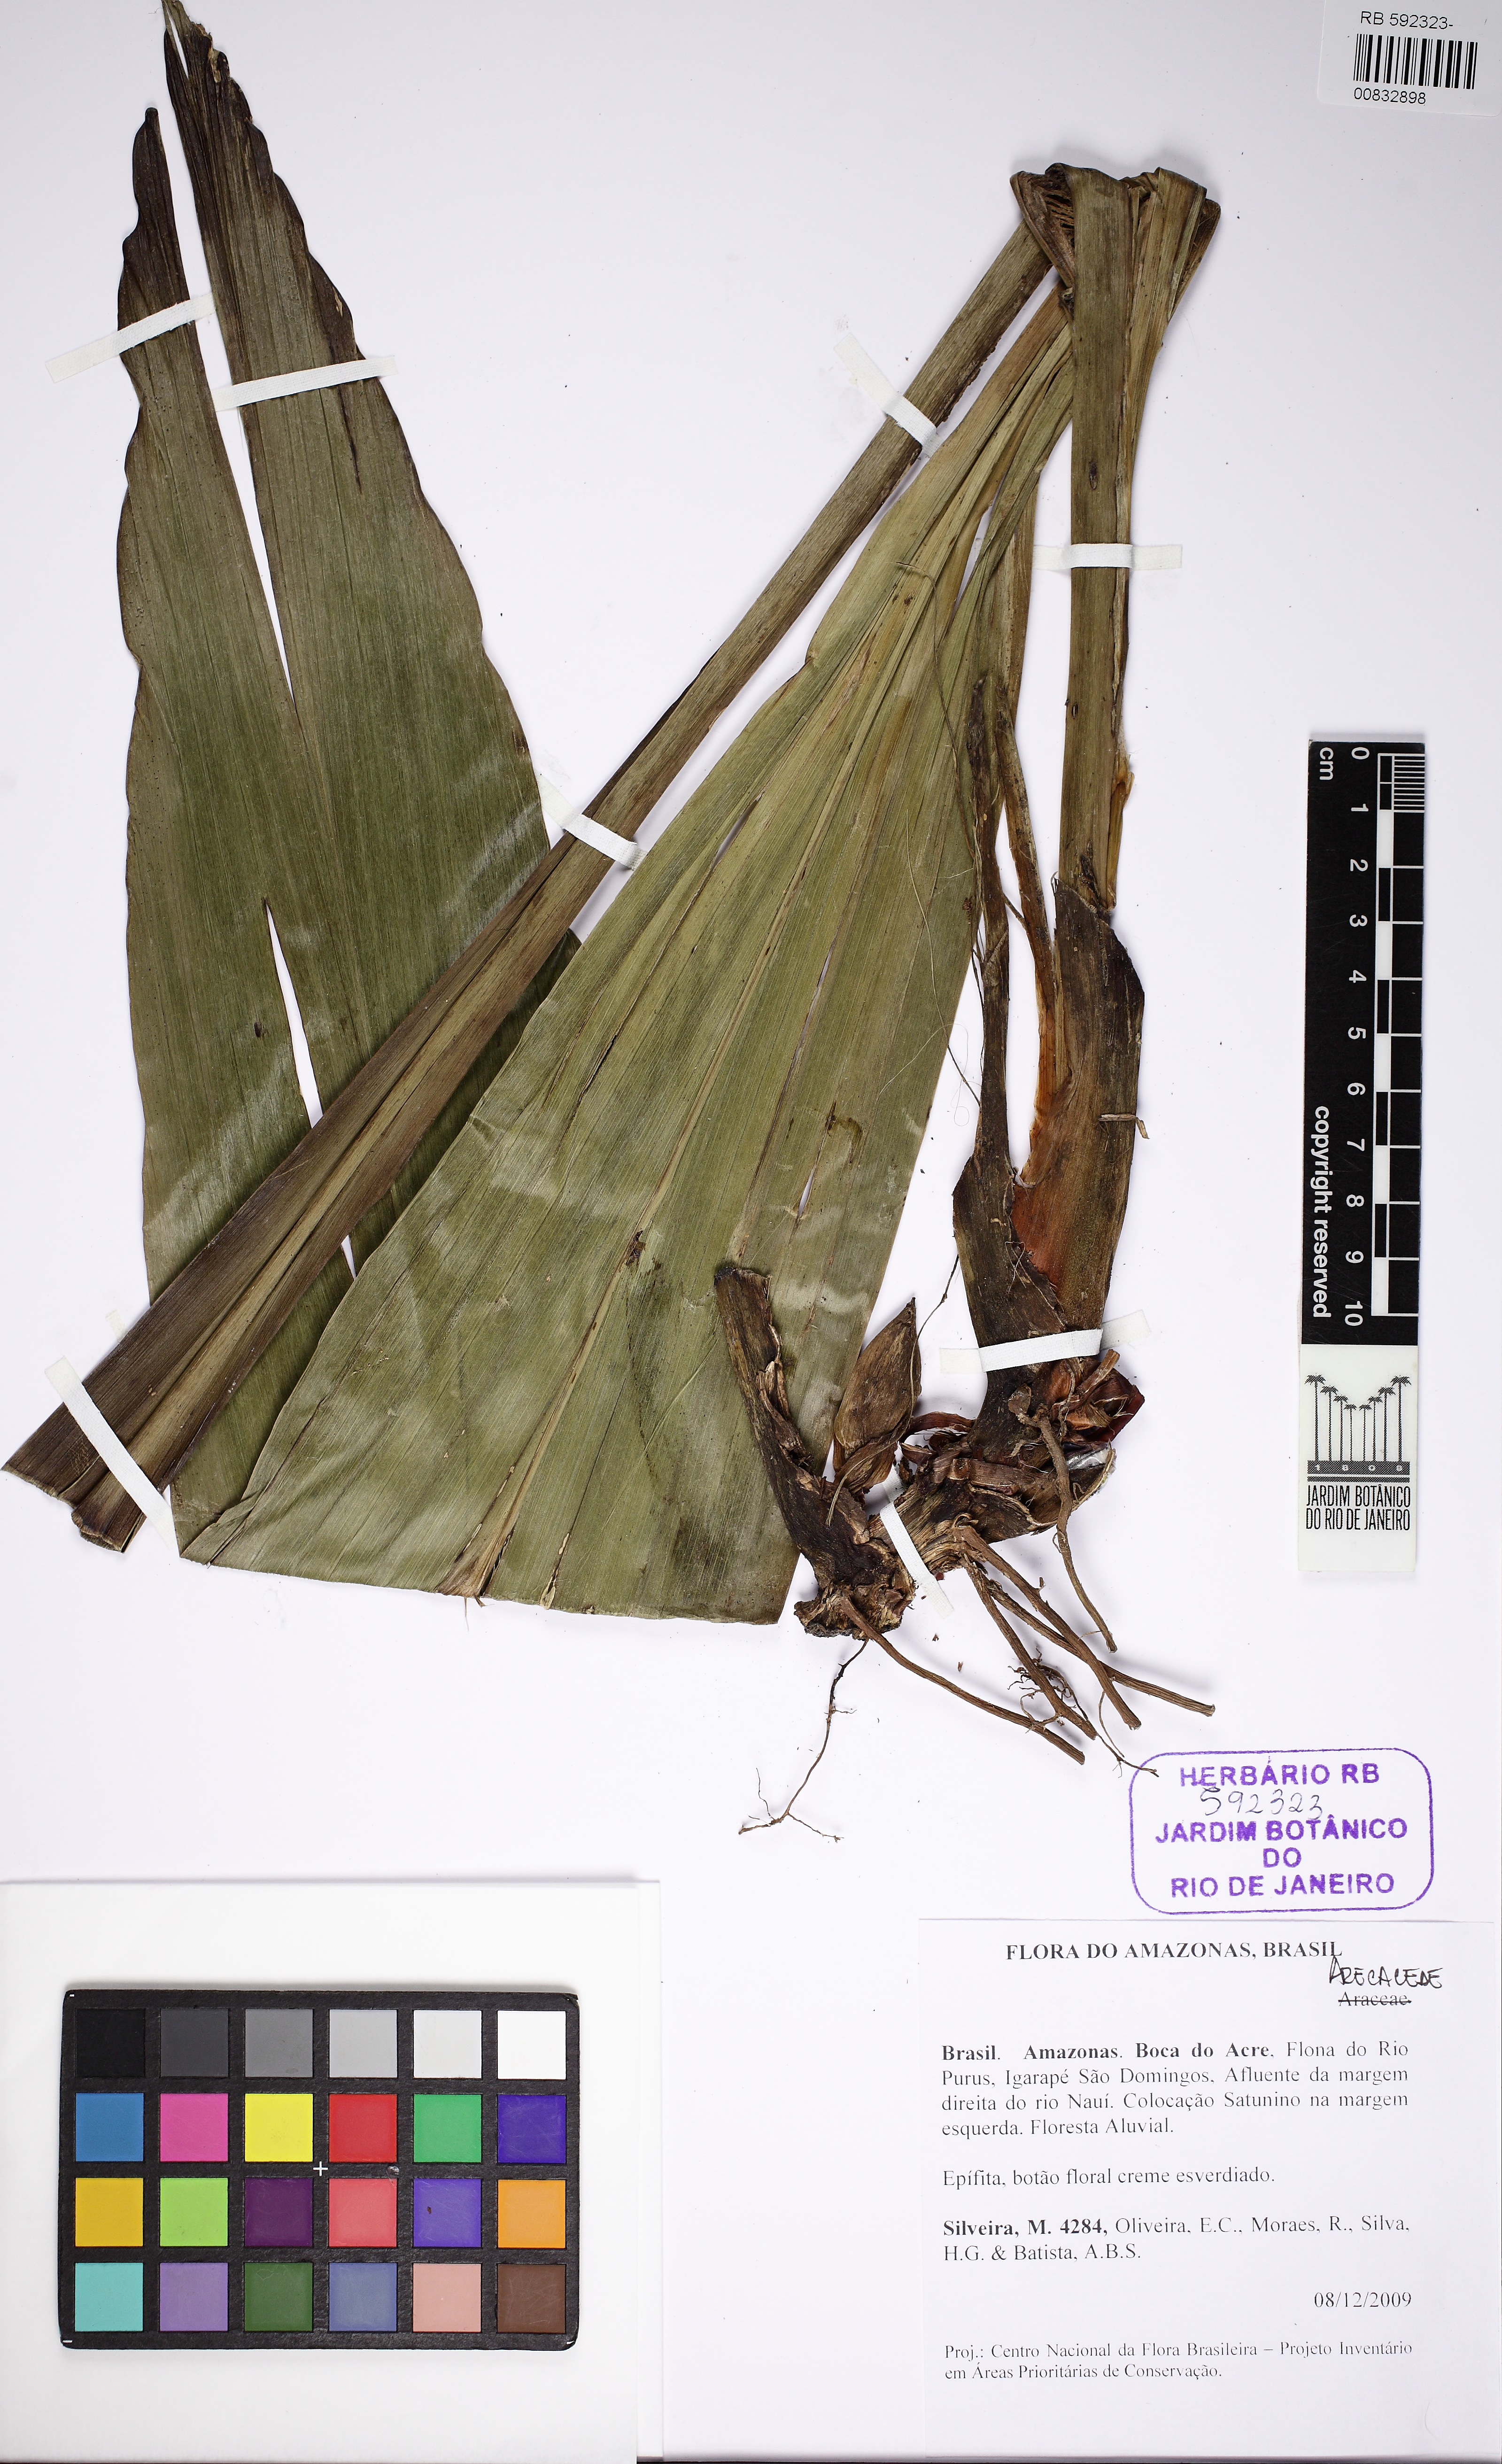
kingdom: Plantae
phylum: Tracheophyta
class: Liliopsida
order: Arecales
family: Arecaceae
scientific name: Arecaceae
